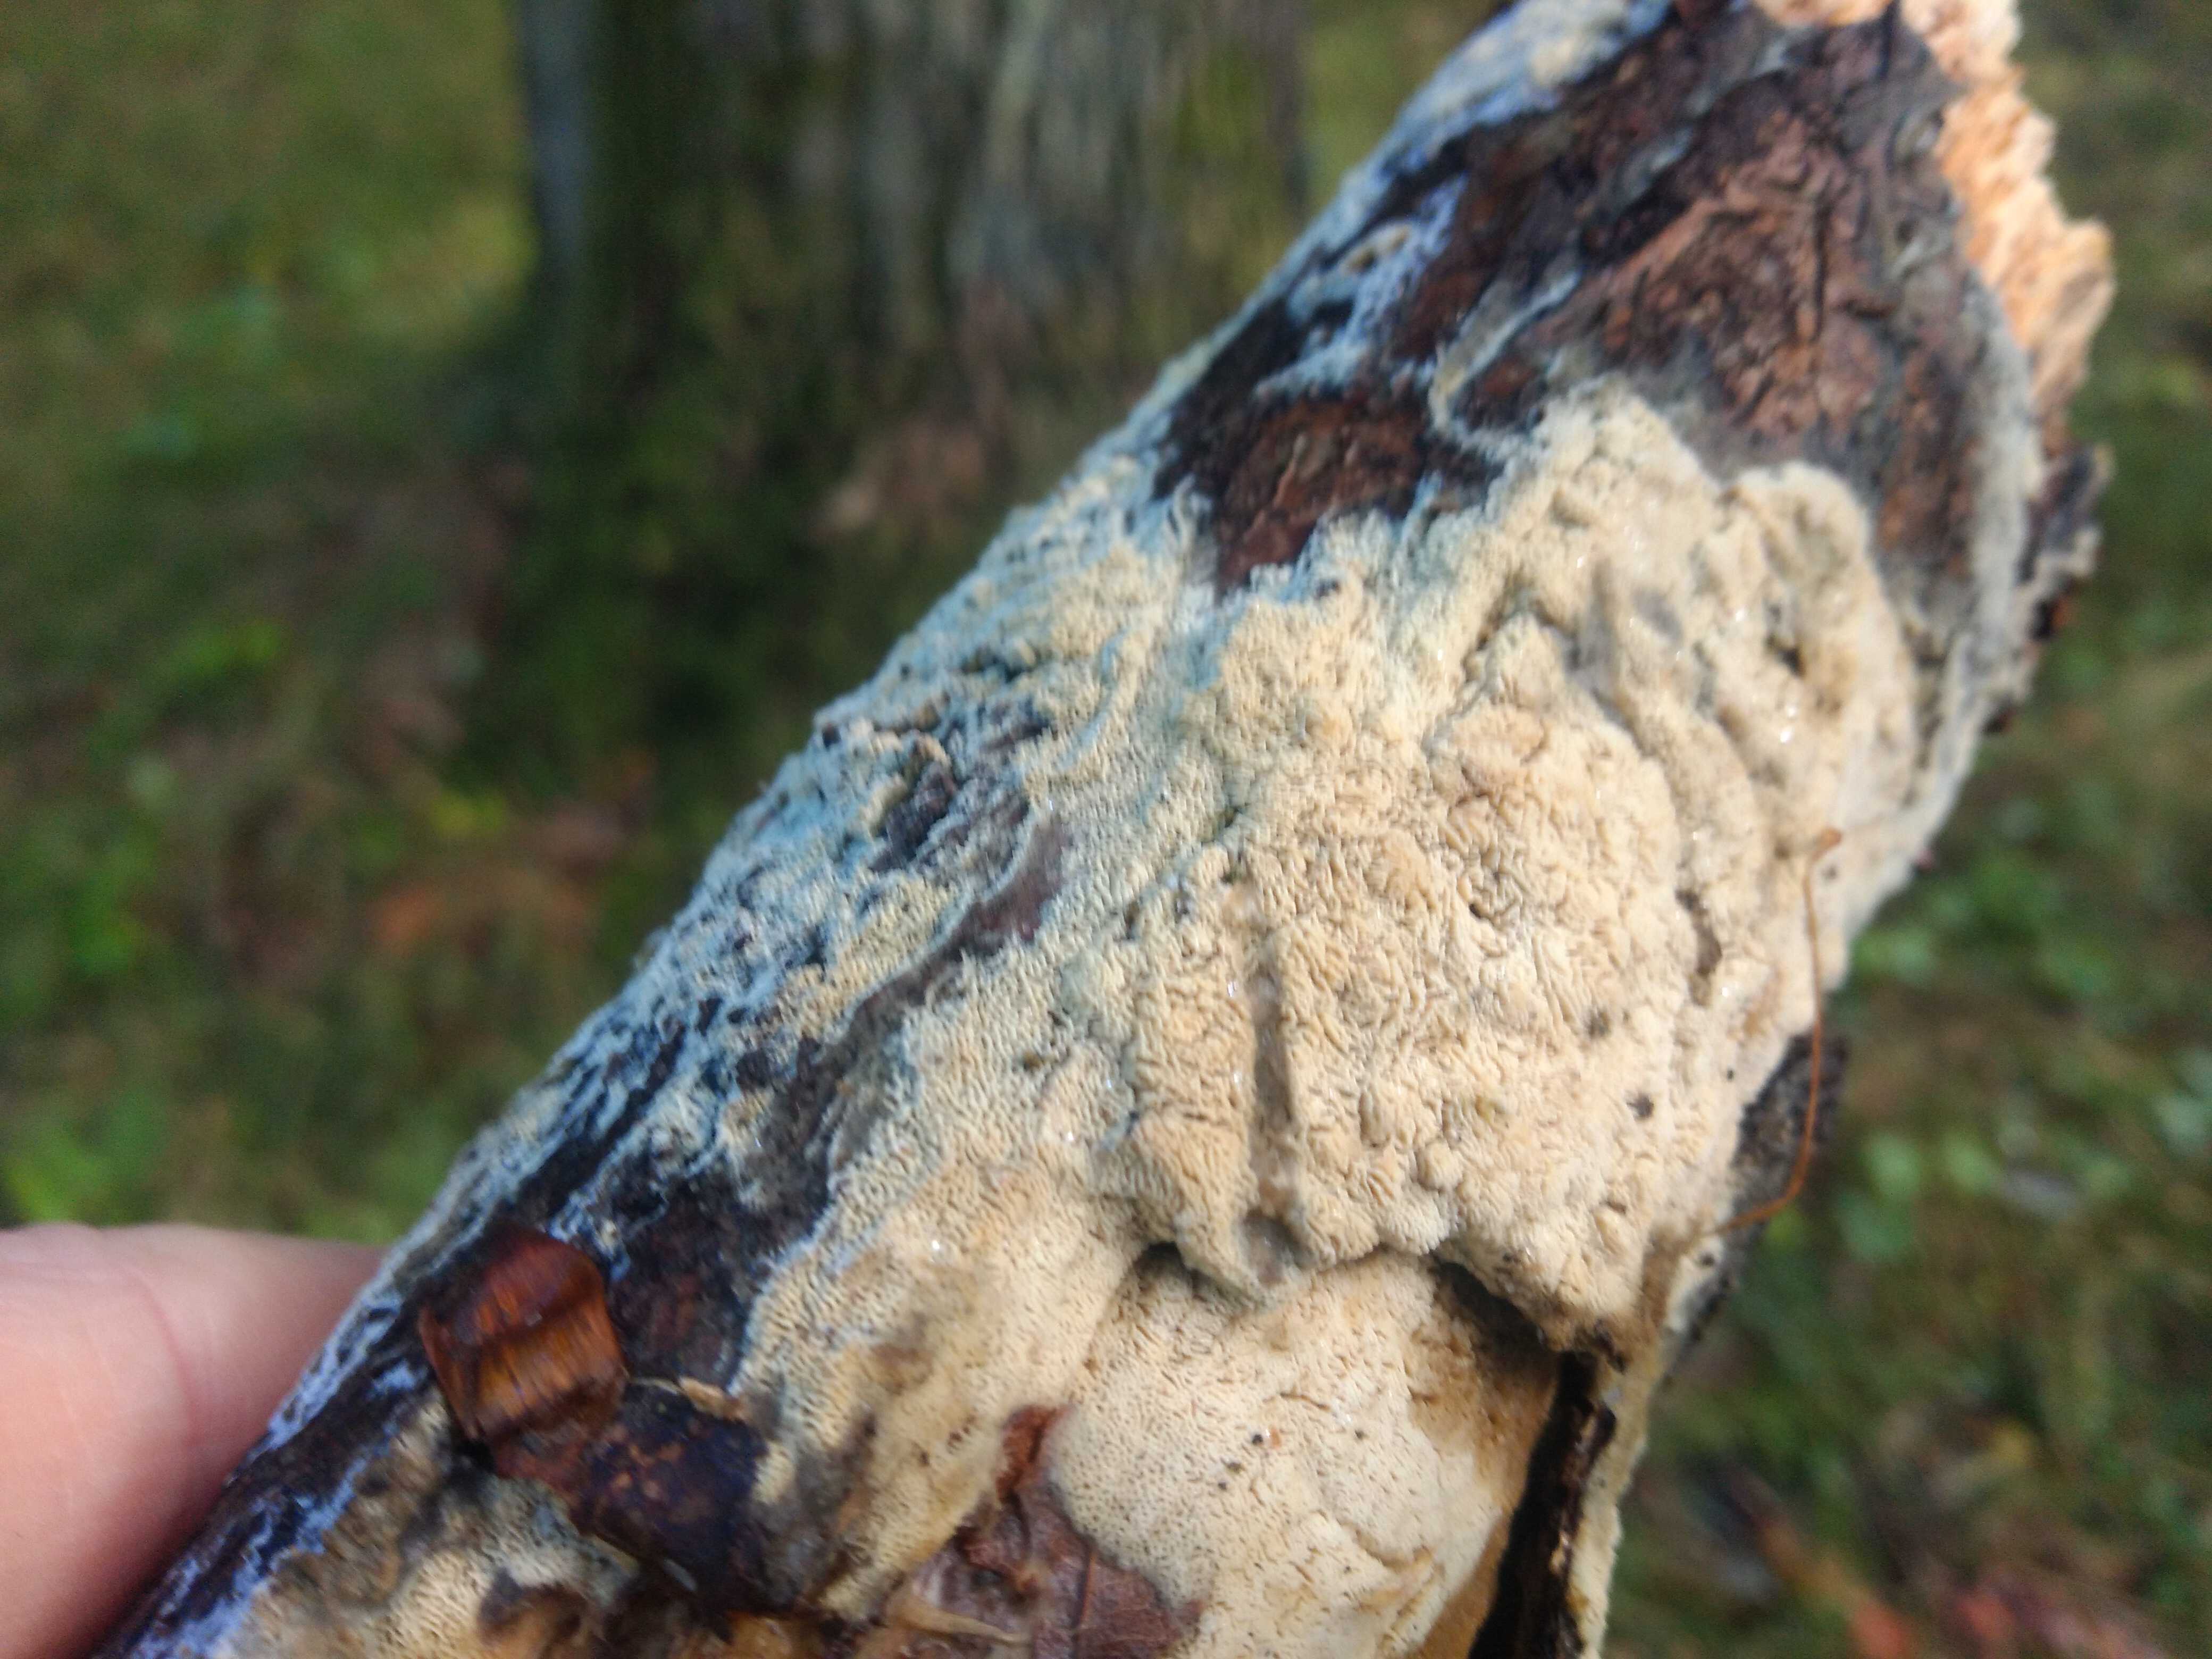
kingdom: Fungi
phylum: Basidiomycota
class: Agaricomycetes
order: Hymenochaetales
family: Schizoporaceae
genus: Xylodon
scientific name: Xylodon subtropicus
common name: labyrint-tandsvamp
